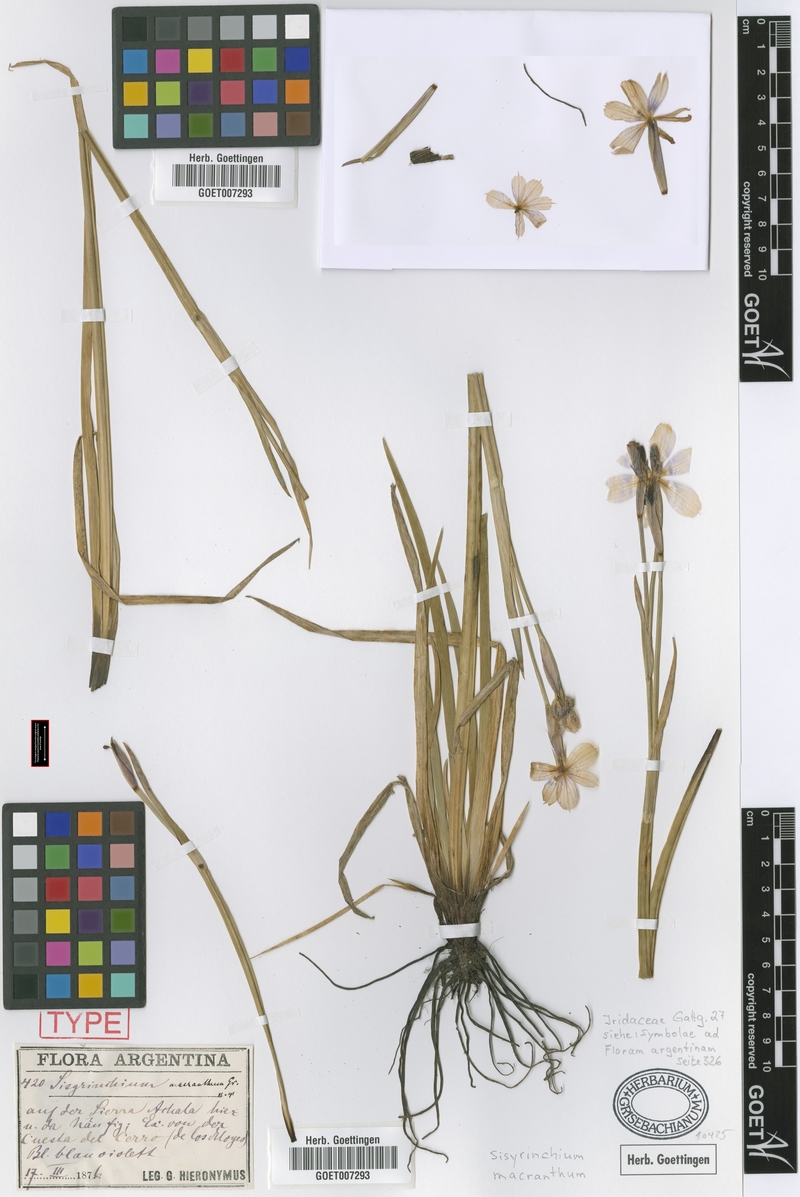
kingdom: Plantae
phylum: Tracheophyta
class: Liliopsida
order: Asparagales
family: Iridaceae
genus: Sisyrinchium
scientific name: Sisyrinchium macranthum
